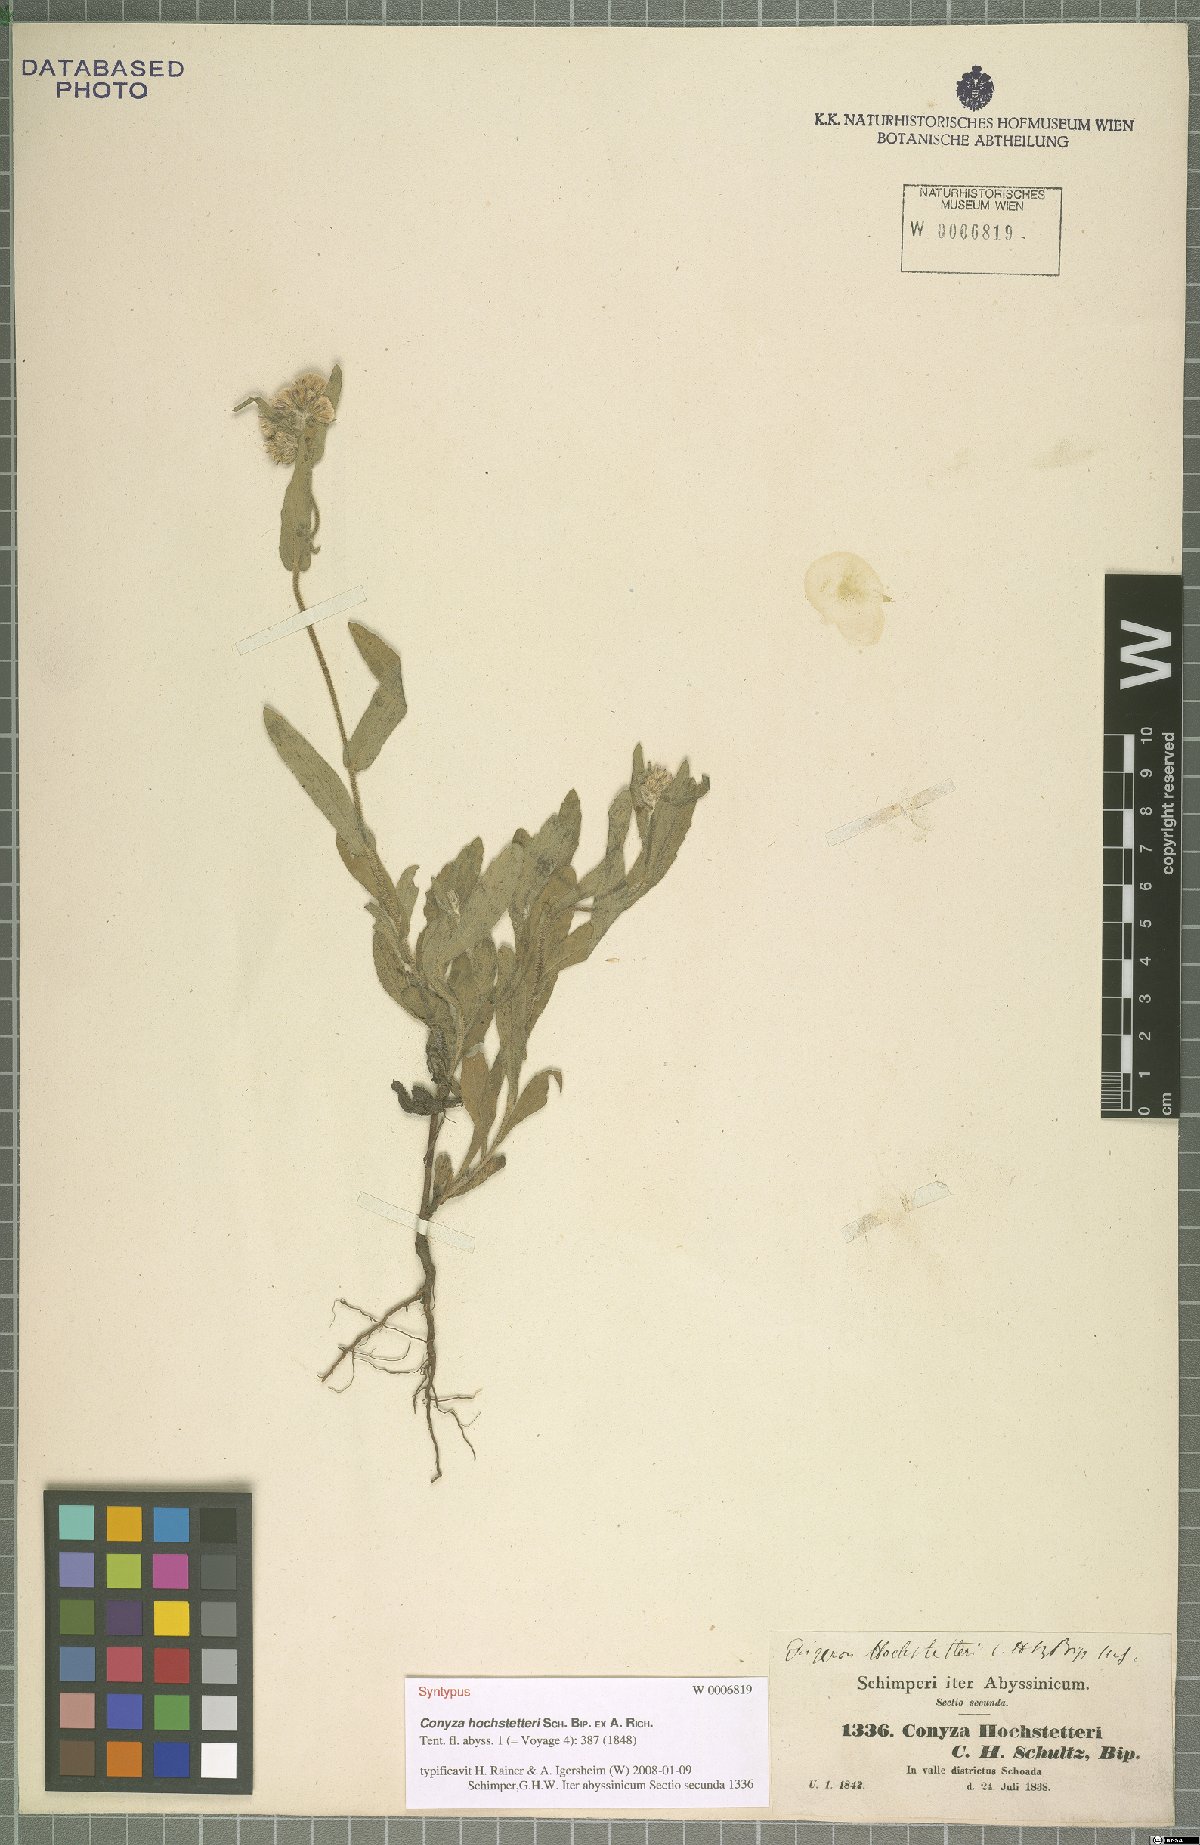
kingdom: Plantae
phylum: Tracheophyta
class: Magnoliopsida
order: Asterales
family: Asteraceae
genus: Eschenbachia
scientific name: Eschenbachia gouanii
